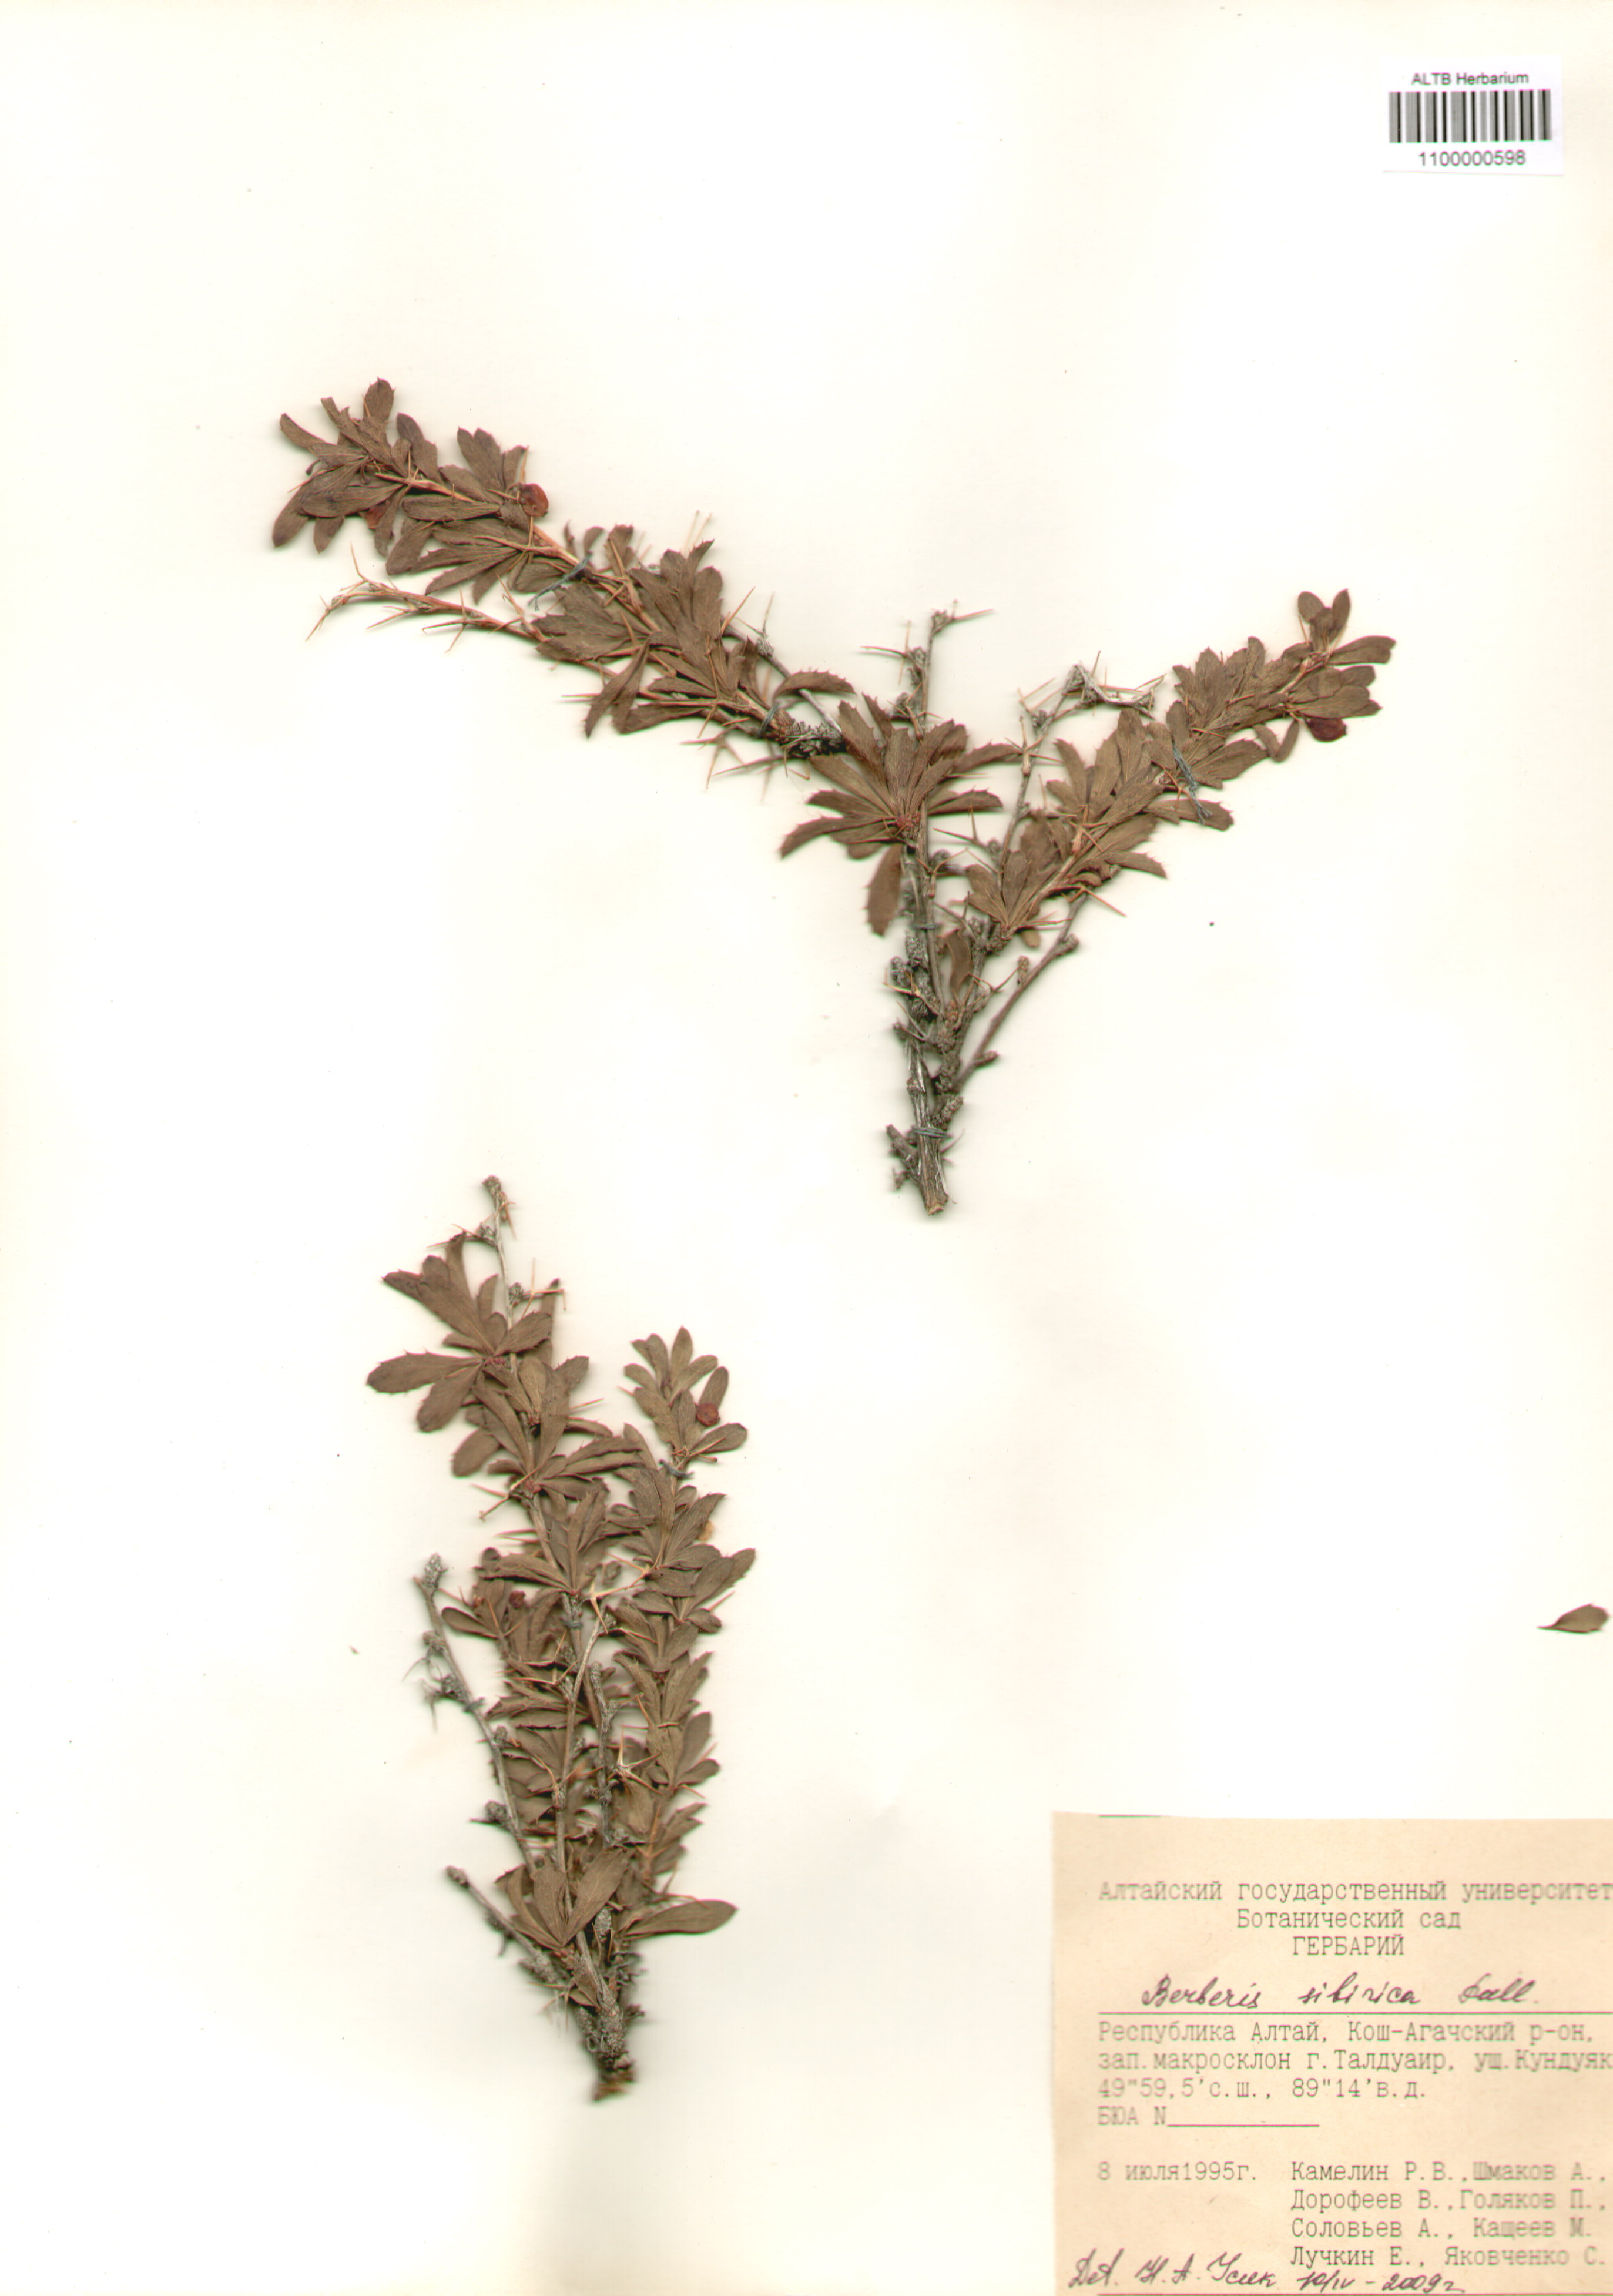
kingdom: Plantae
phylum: Tracheophyta
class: Magnoliopsida
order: Ranunculales
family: Berberidaceae
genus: Berberis
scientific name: Berberis sibirica
